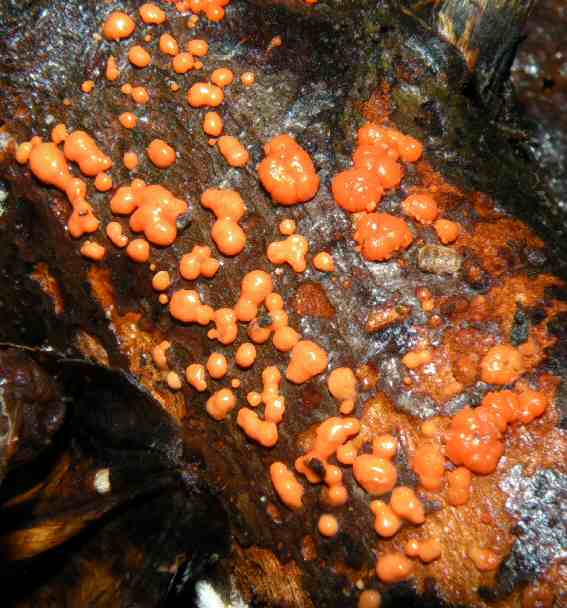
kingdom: Fungi
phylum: Basidiomycota
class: Dacrymycetes
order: Dacrymycetales
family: Dacrymycetaceae
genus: Dacrymyces
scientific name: Dacrymyces stillatus
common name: almindelig tåresvamp
